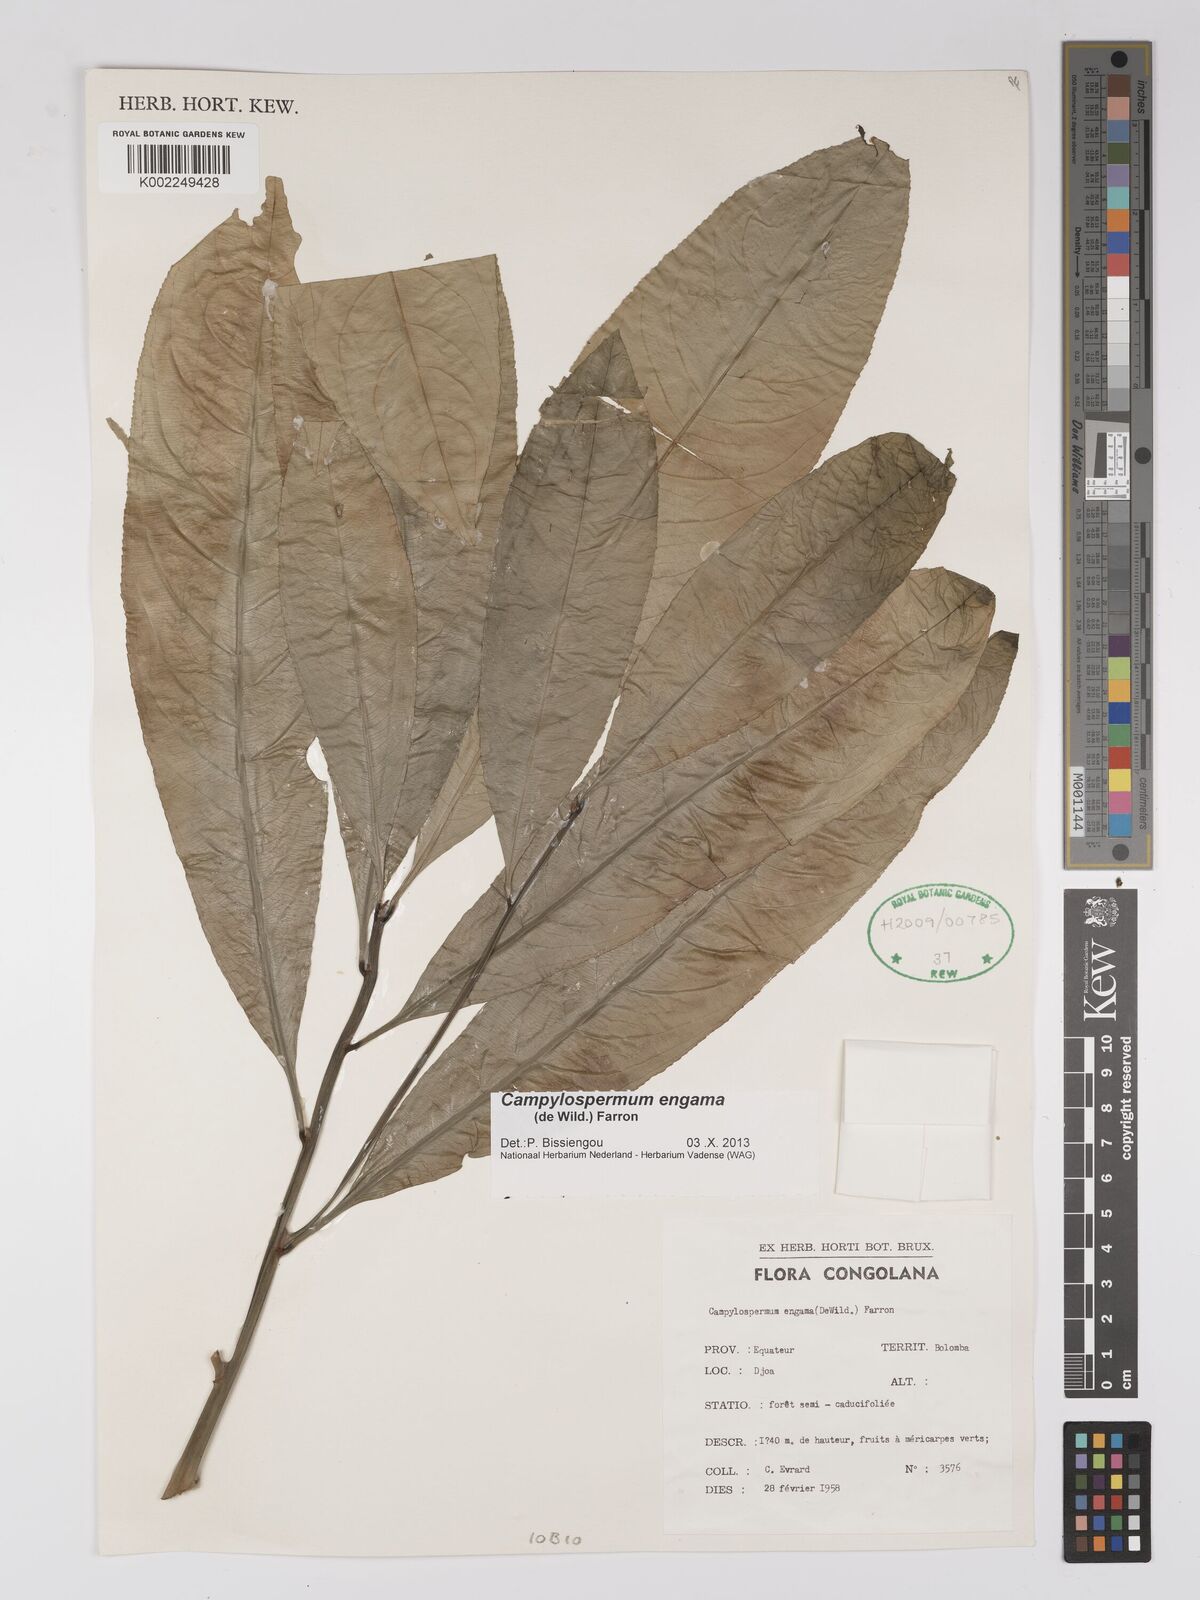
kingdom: Plantae
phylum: Tracheophyta
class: Magnoliopsida
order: Malpighiales
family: Ochnaceae
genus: Campylospermum
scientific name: Campylospermum engama
